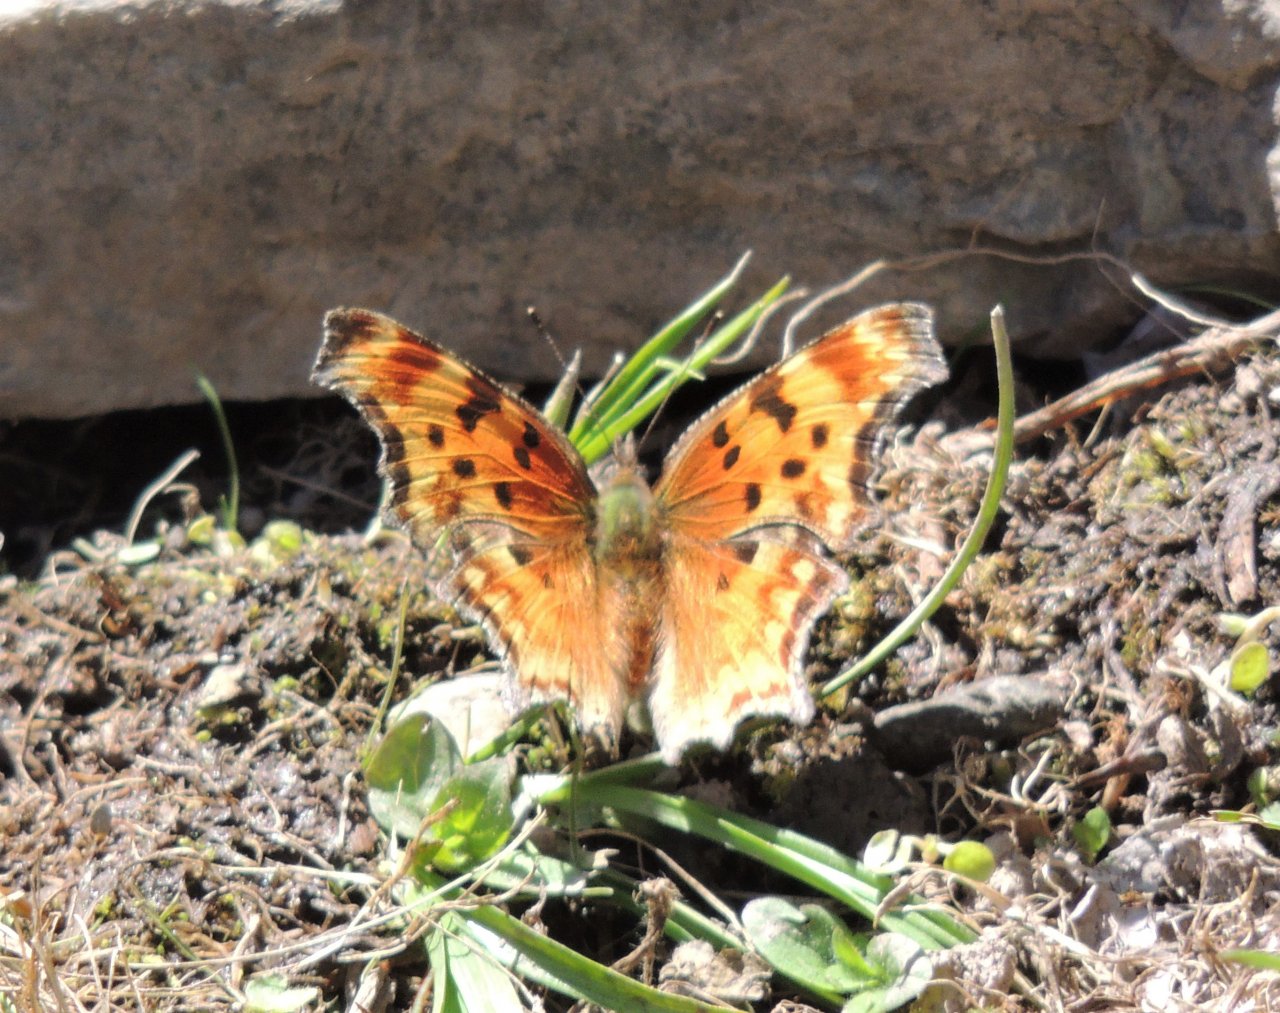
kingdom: Animalia
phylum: Arthropoda
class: Insecta
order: Lepidoptera
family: Nymphalidae
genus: Polygonia
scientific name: Polygonia gracilis
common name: Hoary Comma
